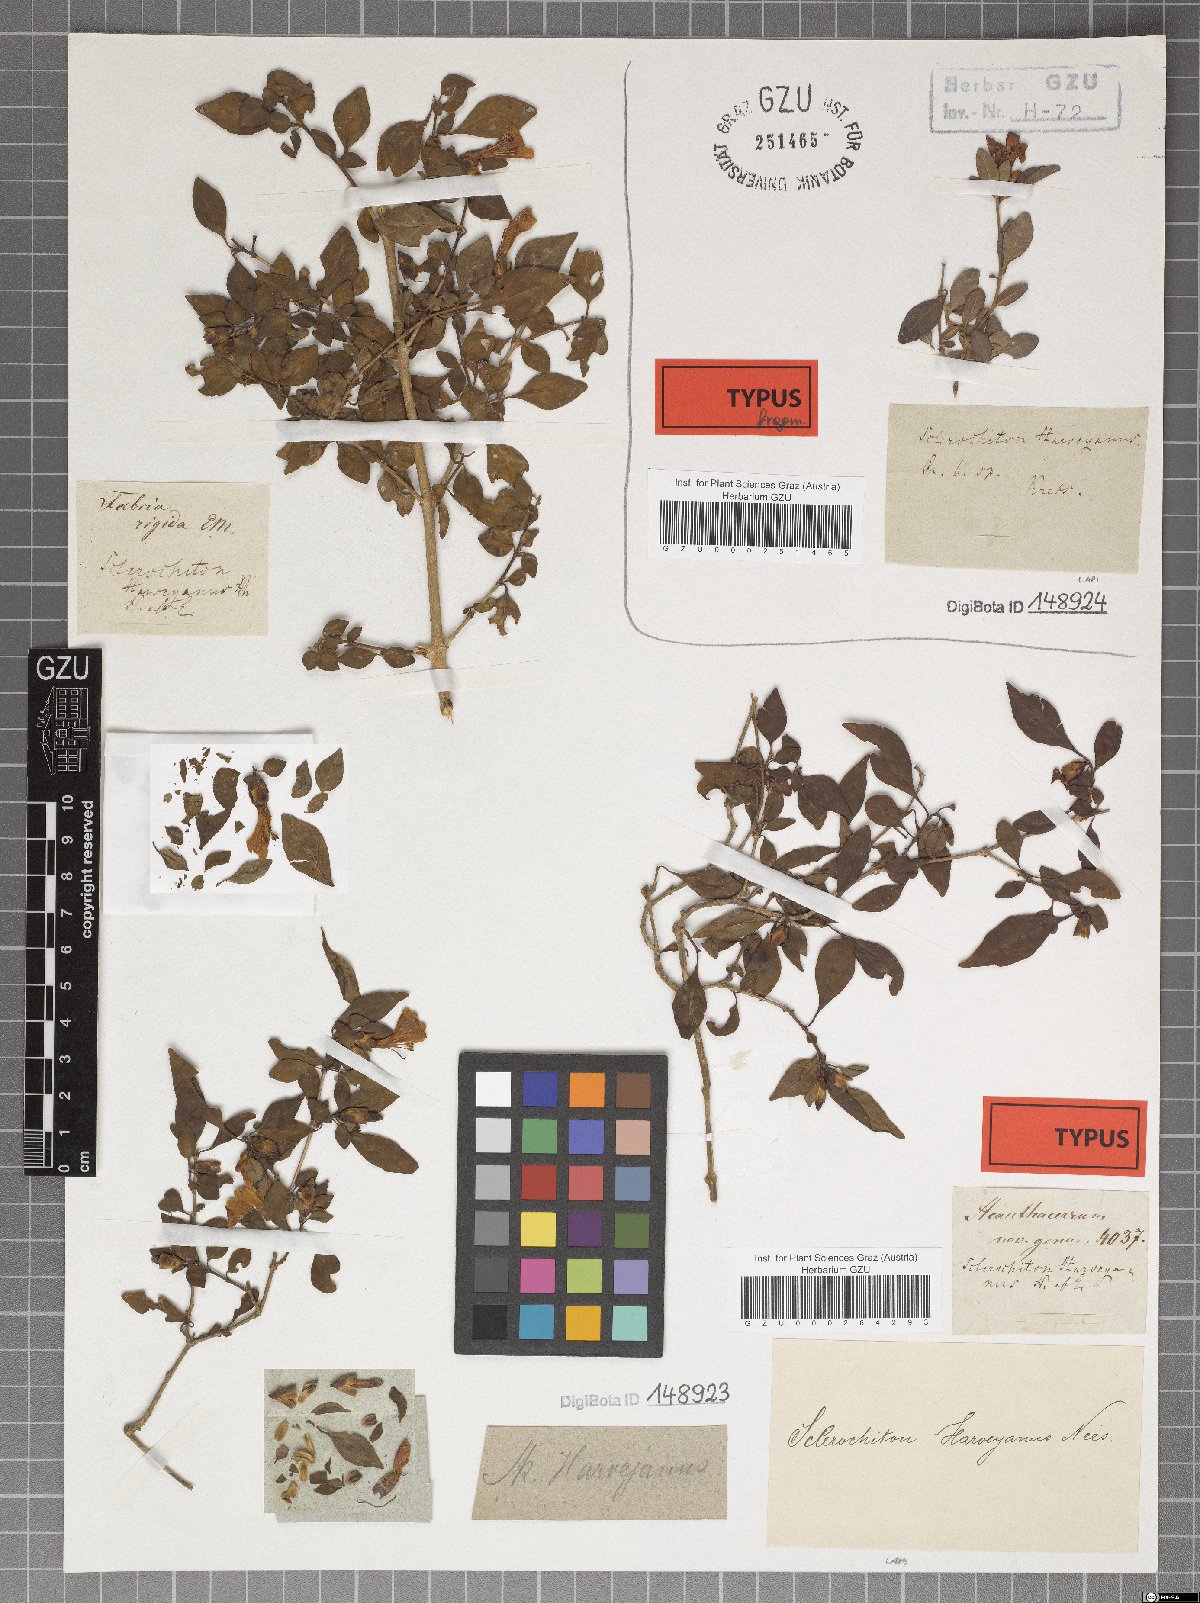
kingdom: Plantae
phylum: Tracheophyta
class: Magnoliopsida
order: Lamiales
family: Acanthaceae
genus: Sclerochiton
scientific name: Sclerochiton harveyanus
